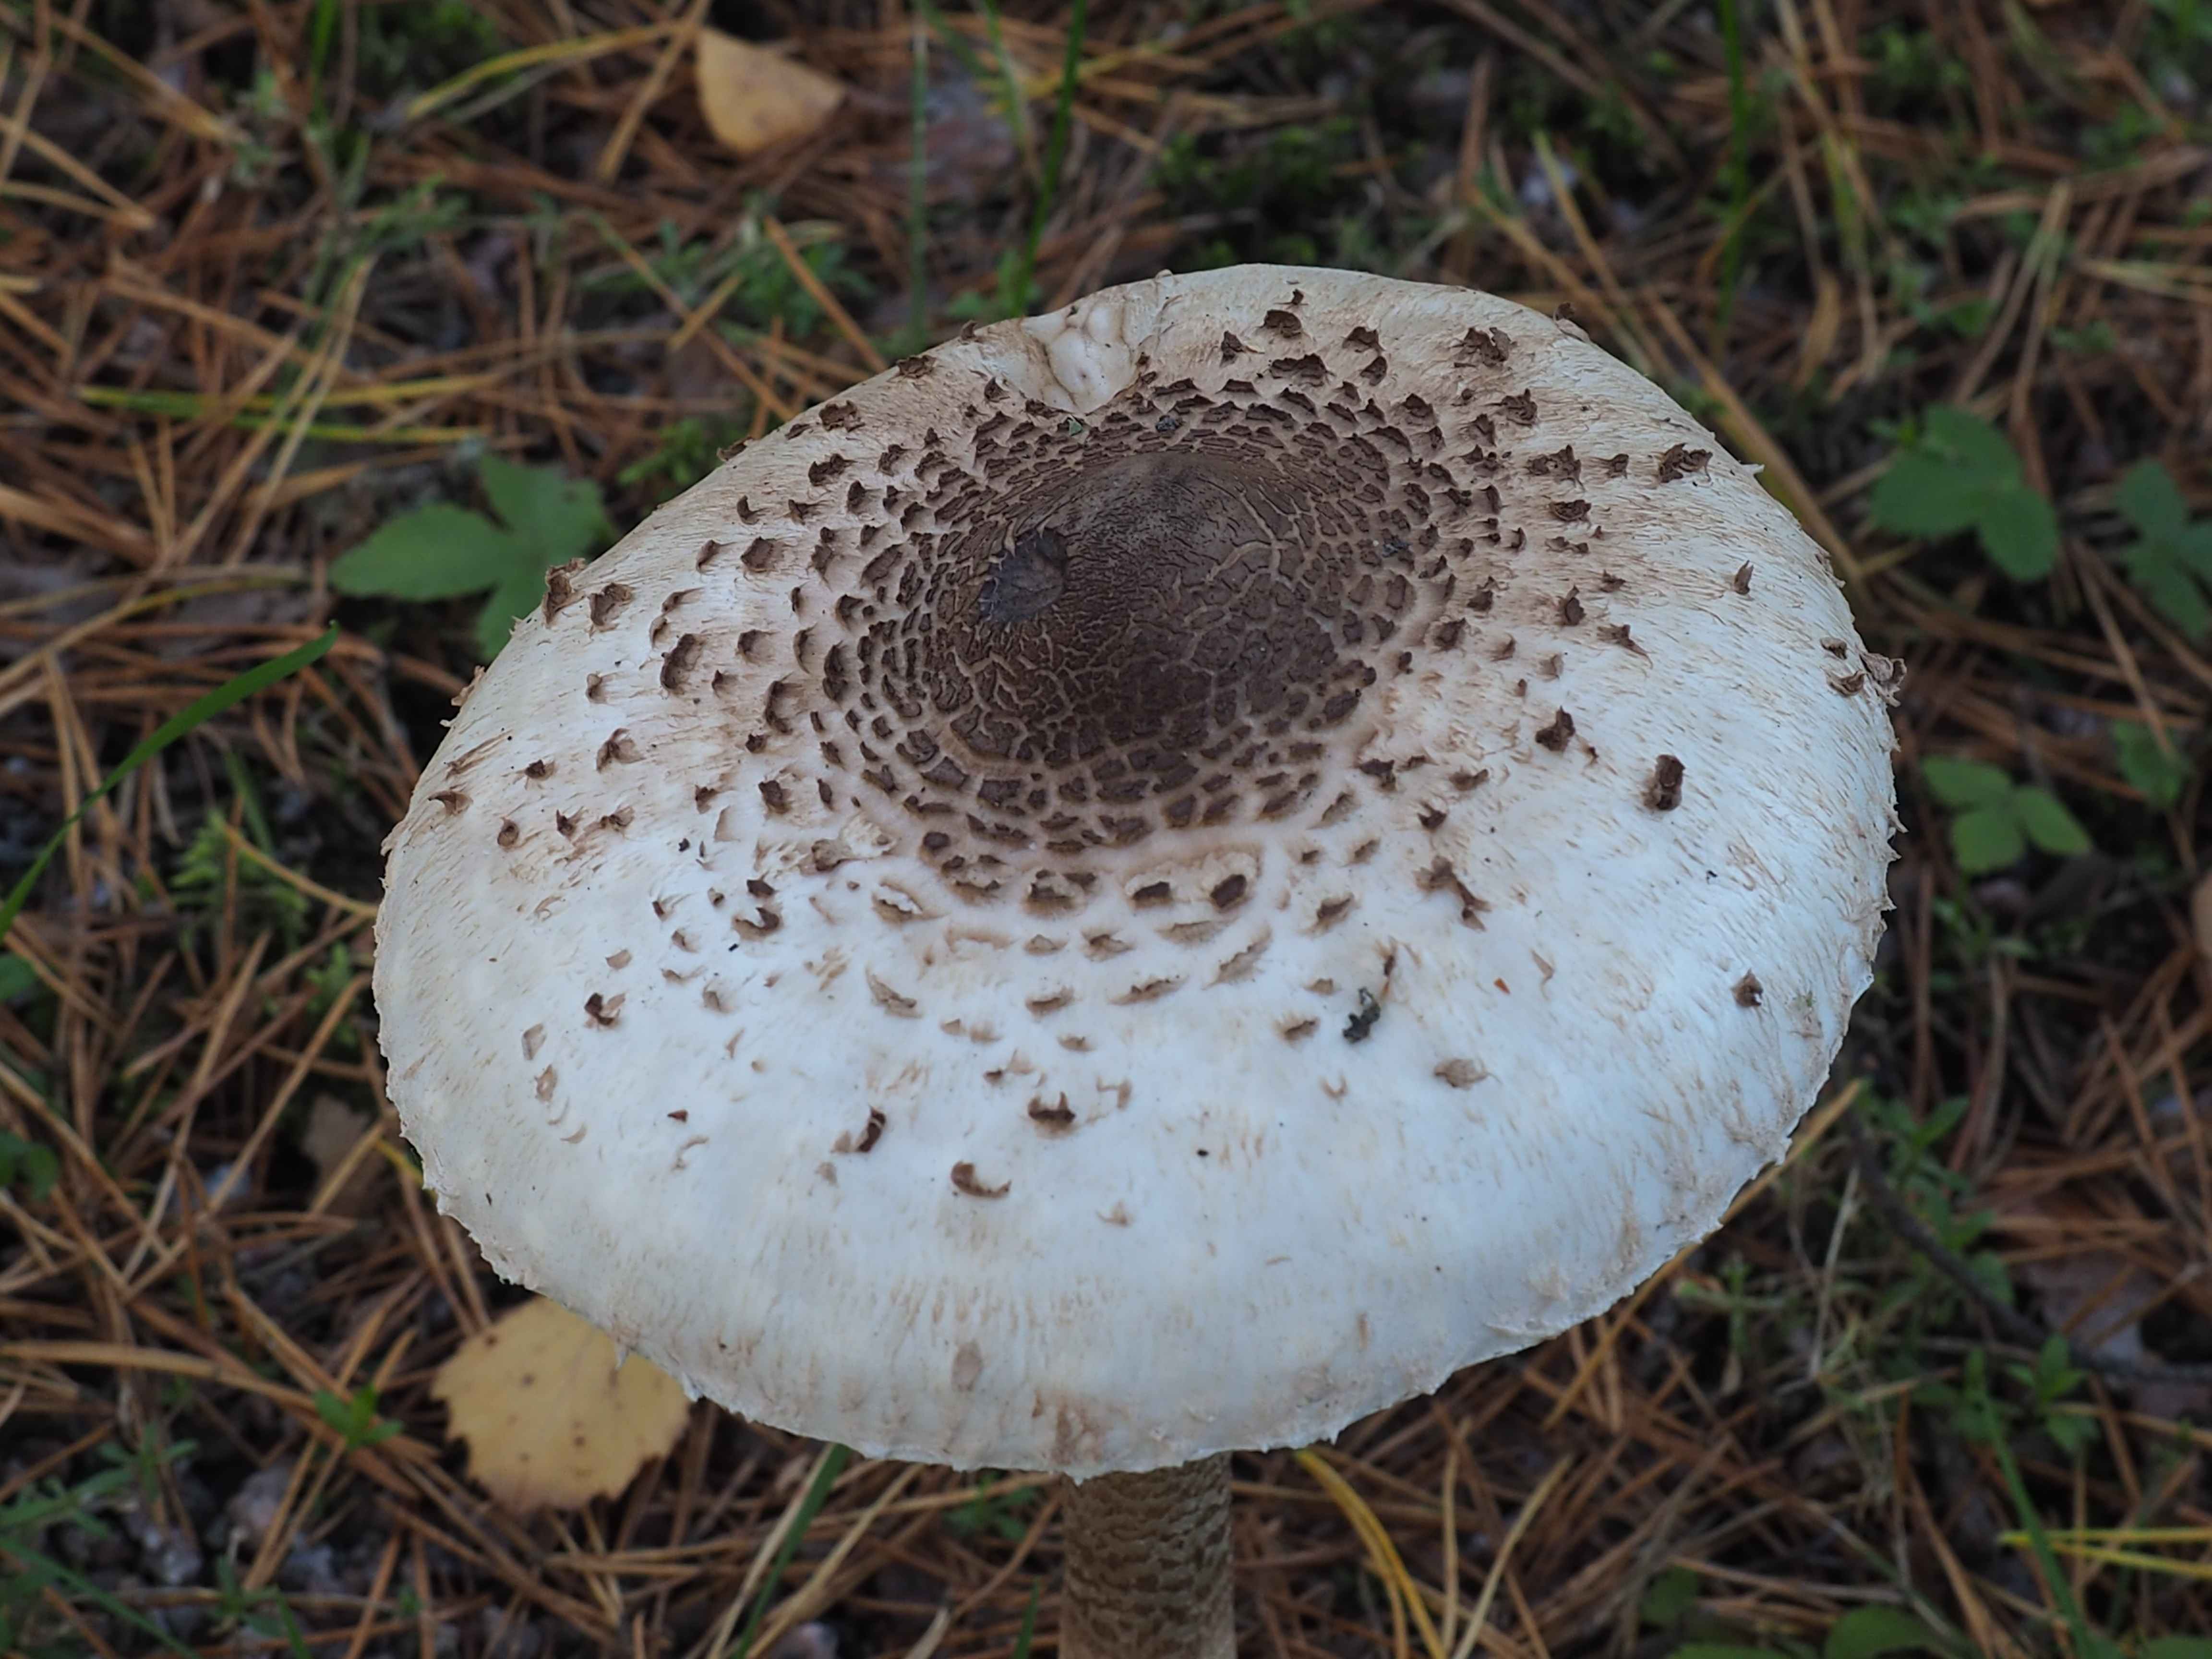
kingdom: Fungi
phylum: Basidiomycota
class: Agaricomycetes
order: Agaricales
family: Agaricaceae
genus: Macrolepiota
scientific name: Macrolepiota procera
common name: Parasol
